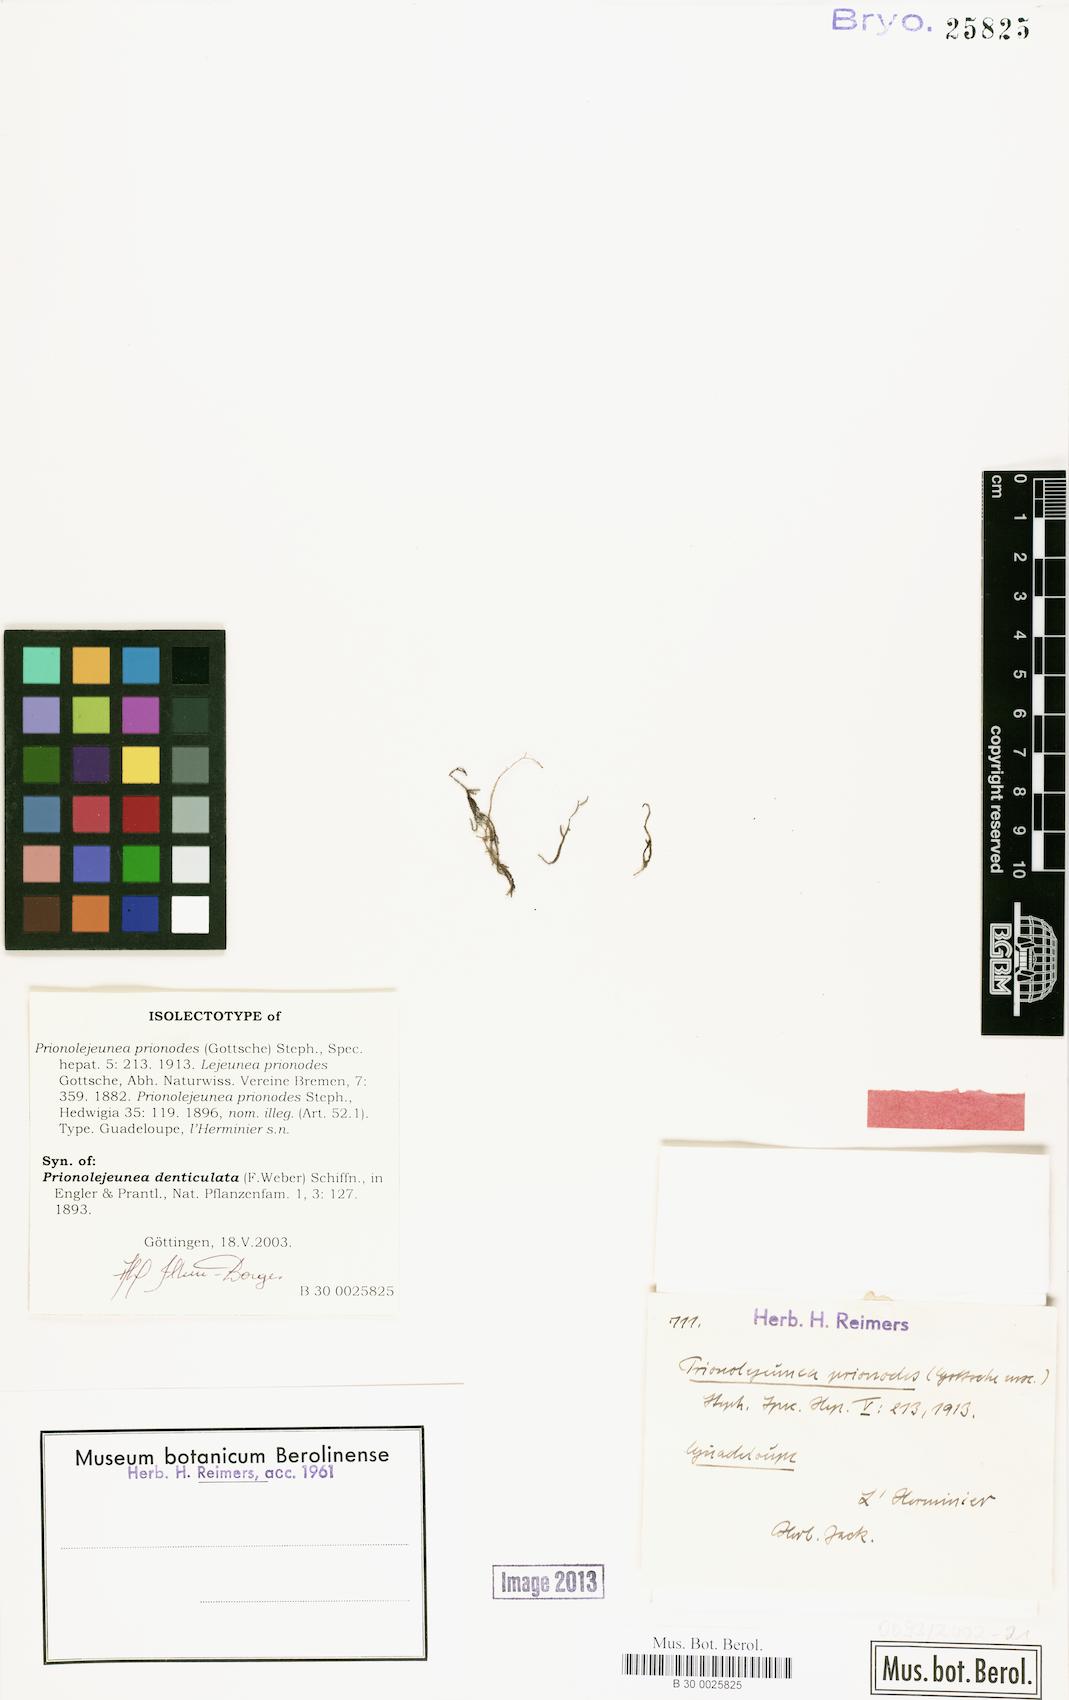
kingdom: Plantae
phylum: Marchantiophyta
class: Jungermanniopsida
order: Porellales
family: Lejeuneaceae
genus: Prionolejeunea
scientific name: Prionolejeunea aemula
